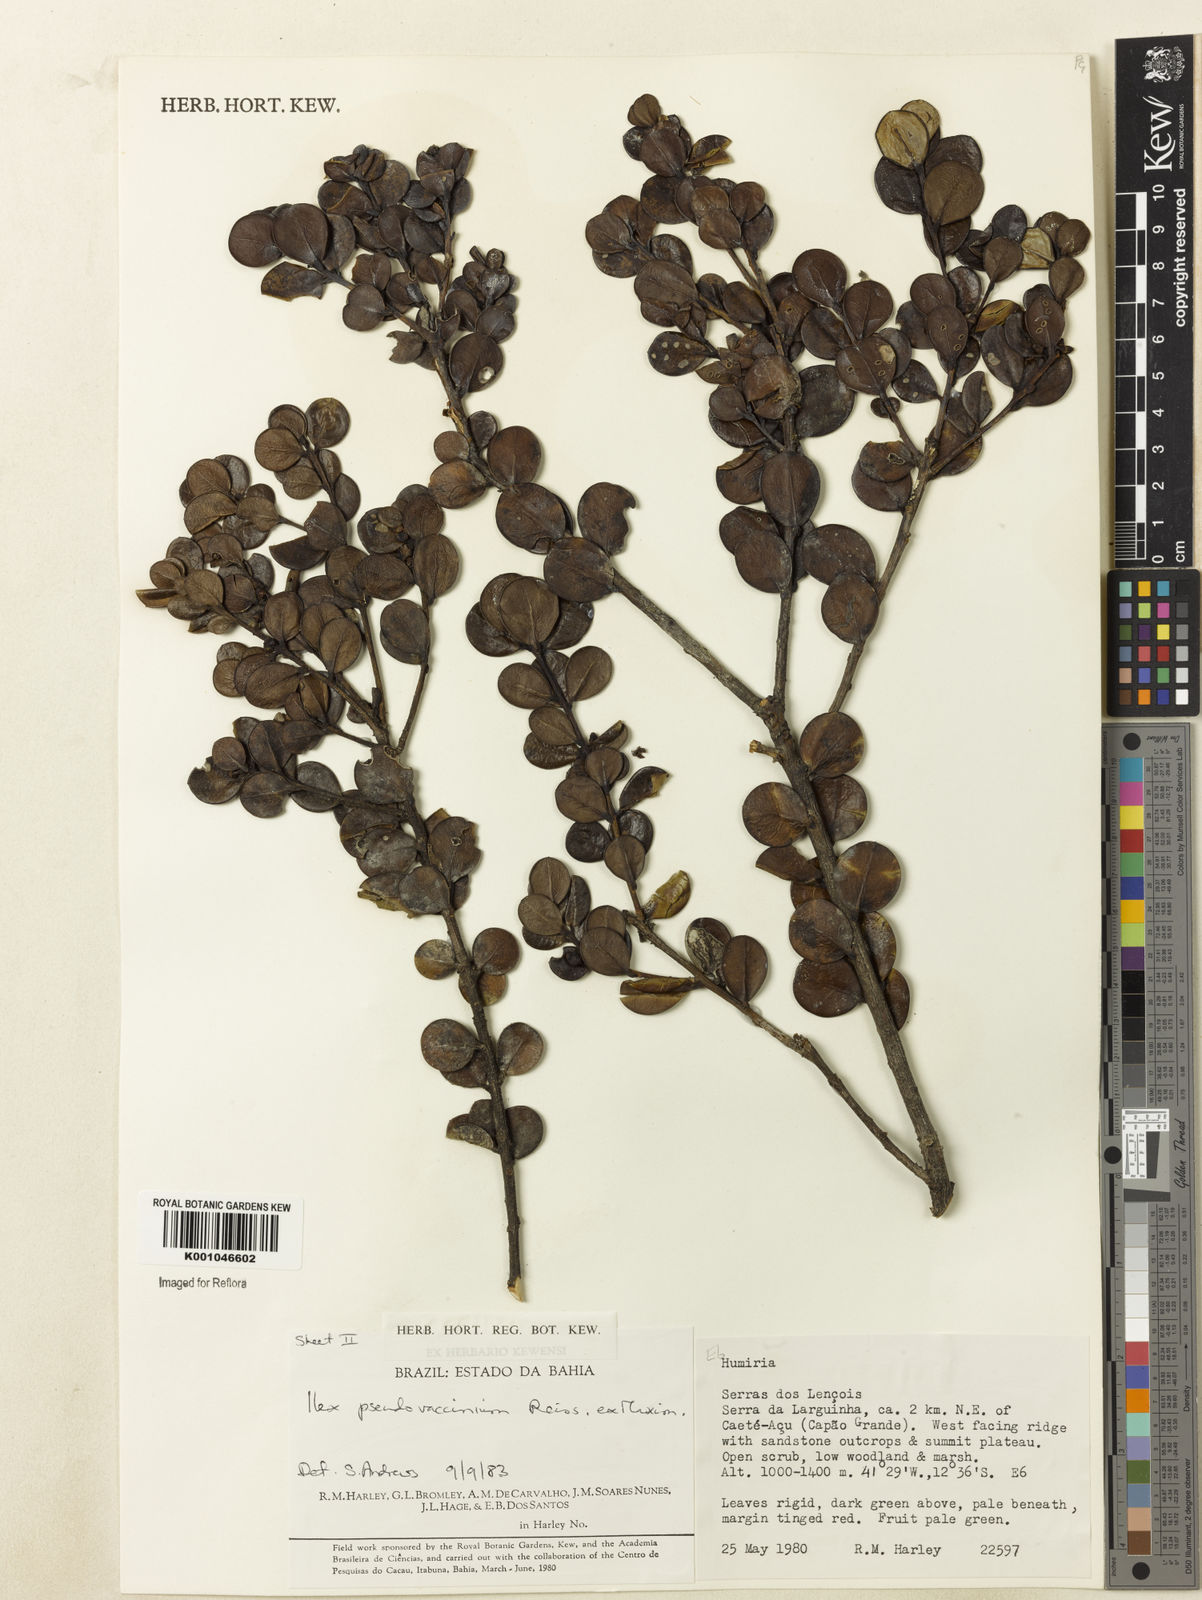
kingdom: Plantae
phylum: Tracheophyta
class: Magnoliopsida
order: Aquifoliales
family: Aquifoliaceae
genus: Ilex
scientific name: Ilex pseudovaccinium
